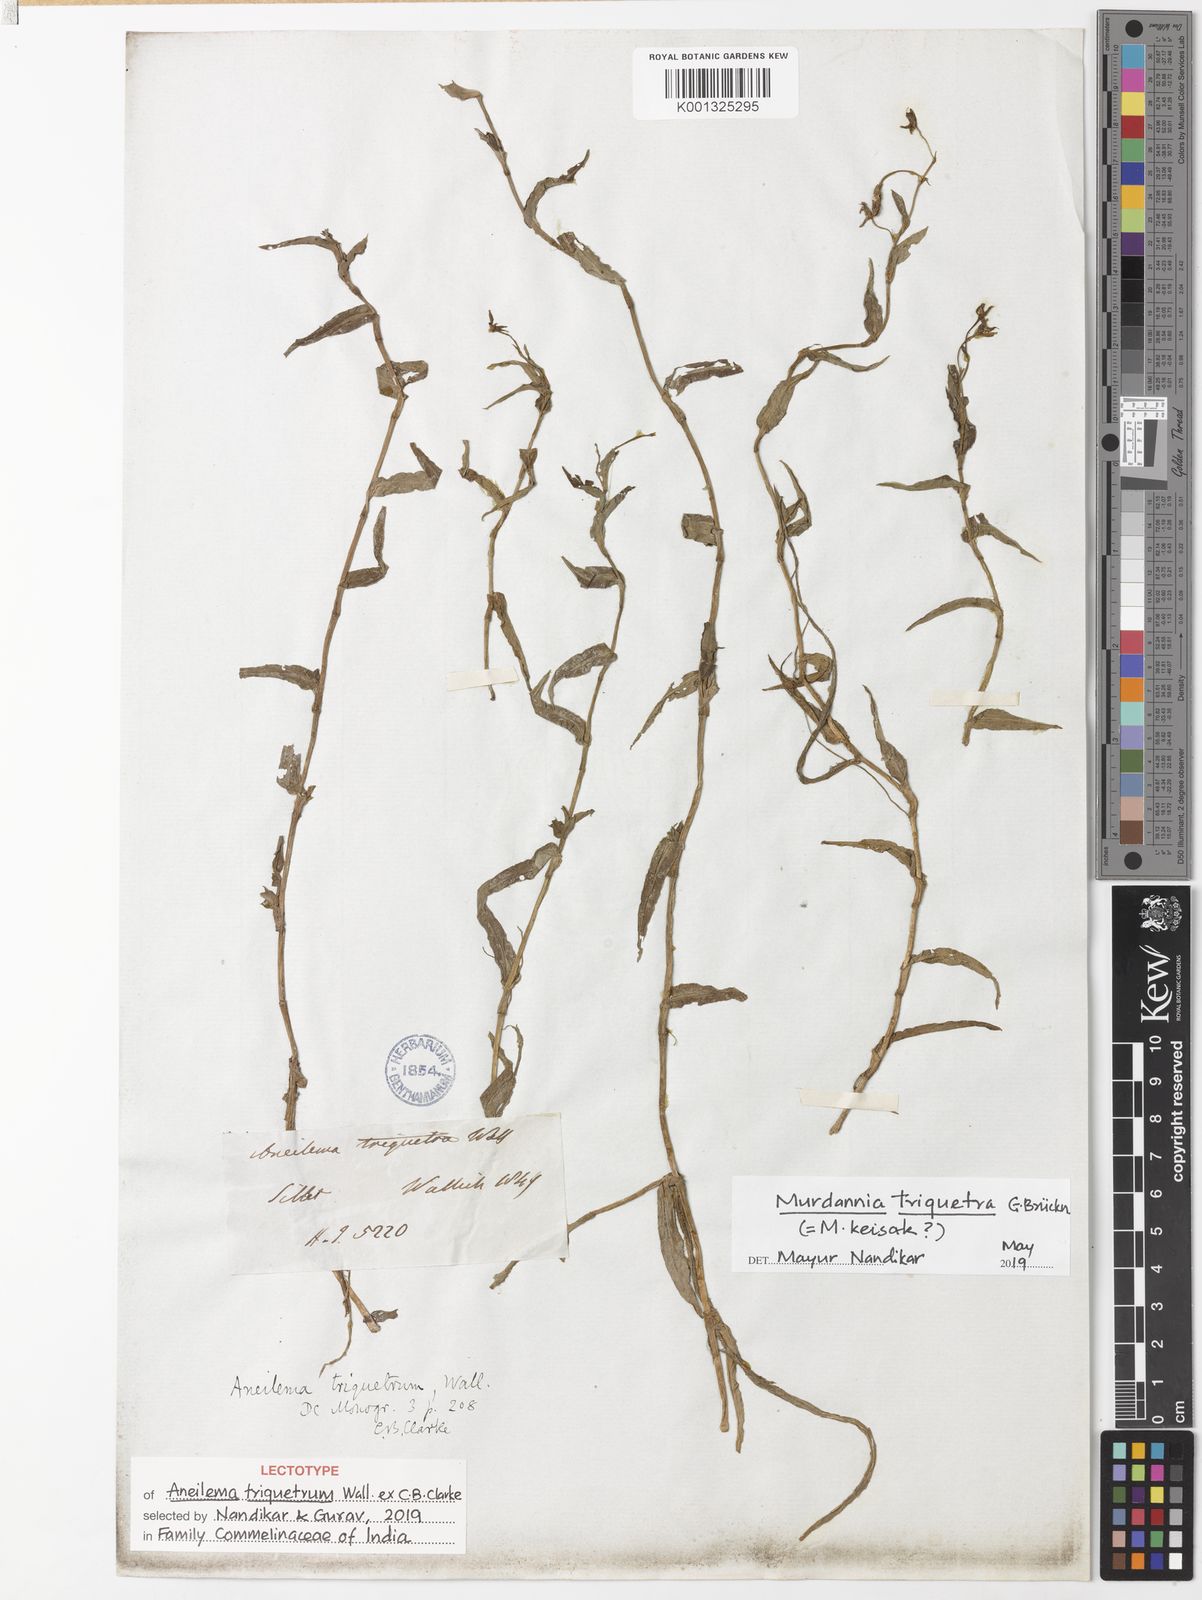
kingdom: Plantae
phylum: Tracheophyta
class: Liliopsida
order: Commelinales
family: Commelinaceae
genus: Murdannia
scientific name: Murdannia keisak
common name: Wartremoving herb
